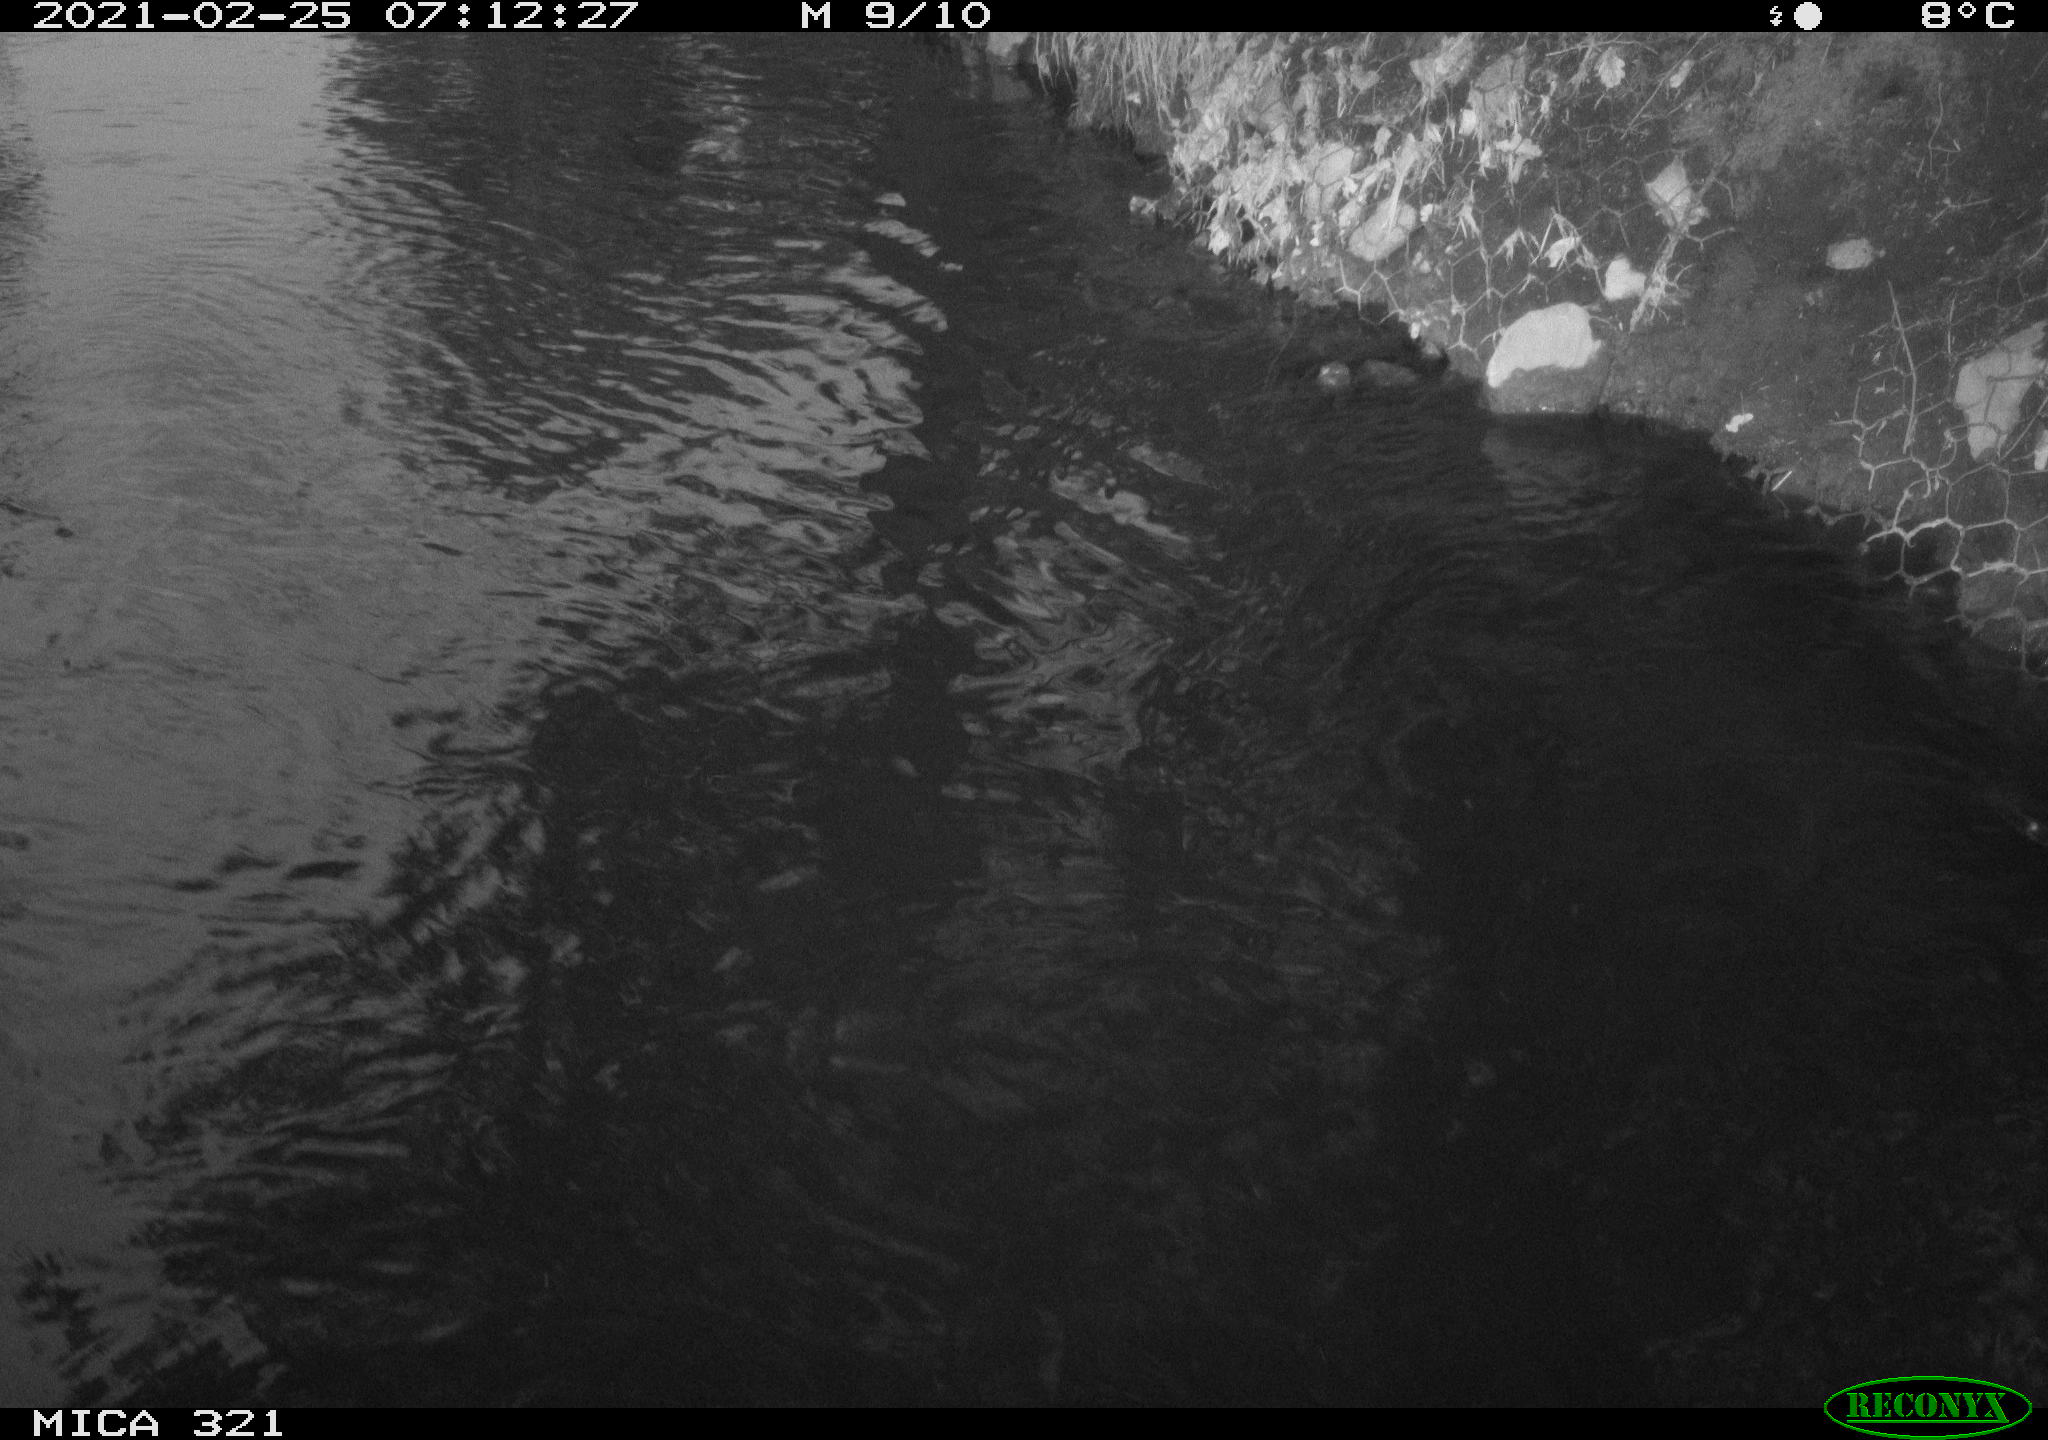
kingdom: Animalia
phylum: Chordata
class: Aves
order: Anseriformes
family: Anatidae
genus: Anas
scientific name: Anas platyrhynchos
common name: Mallard
